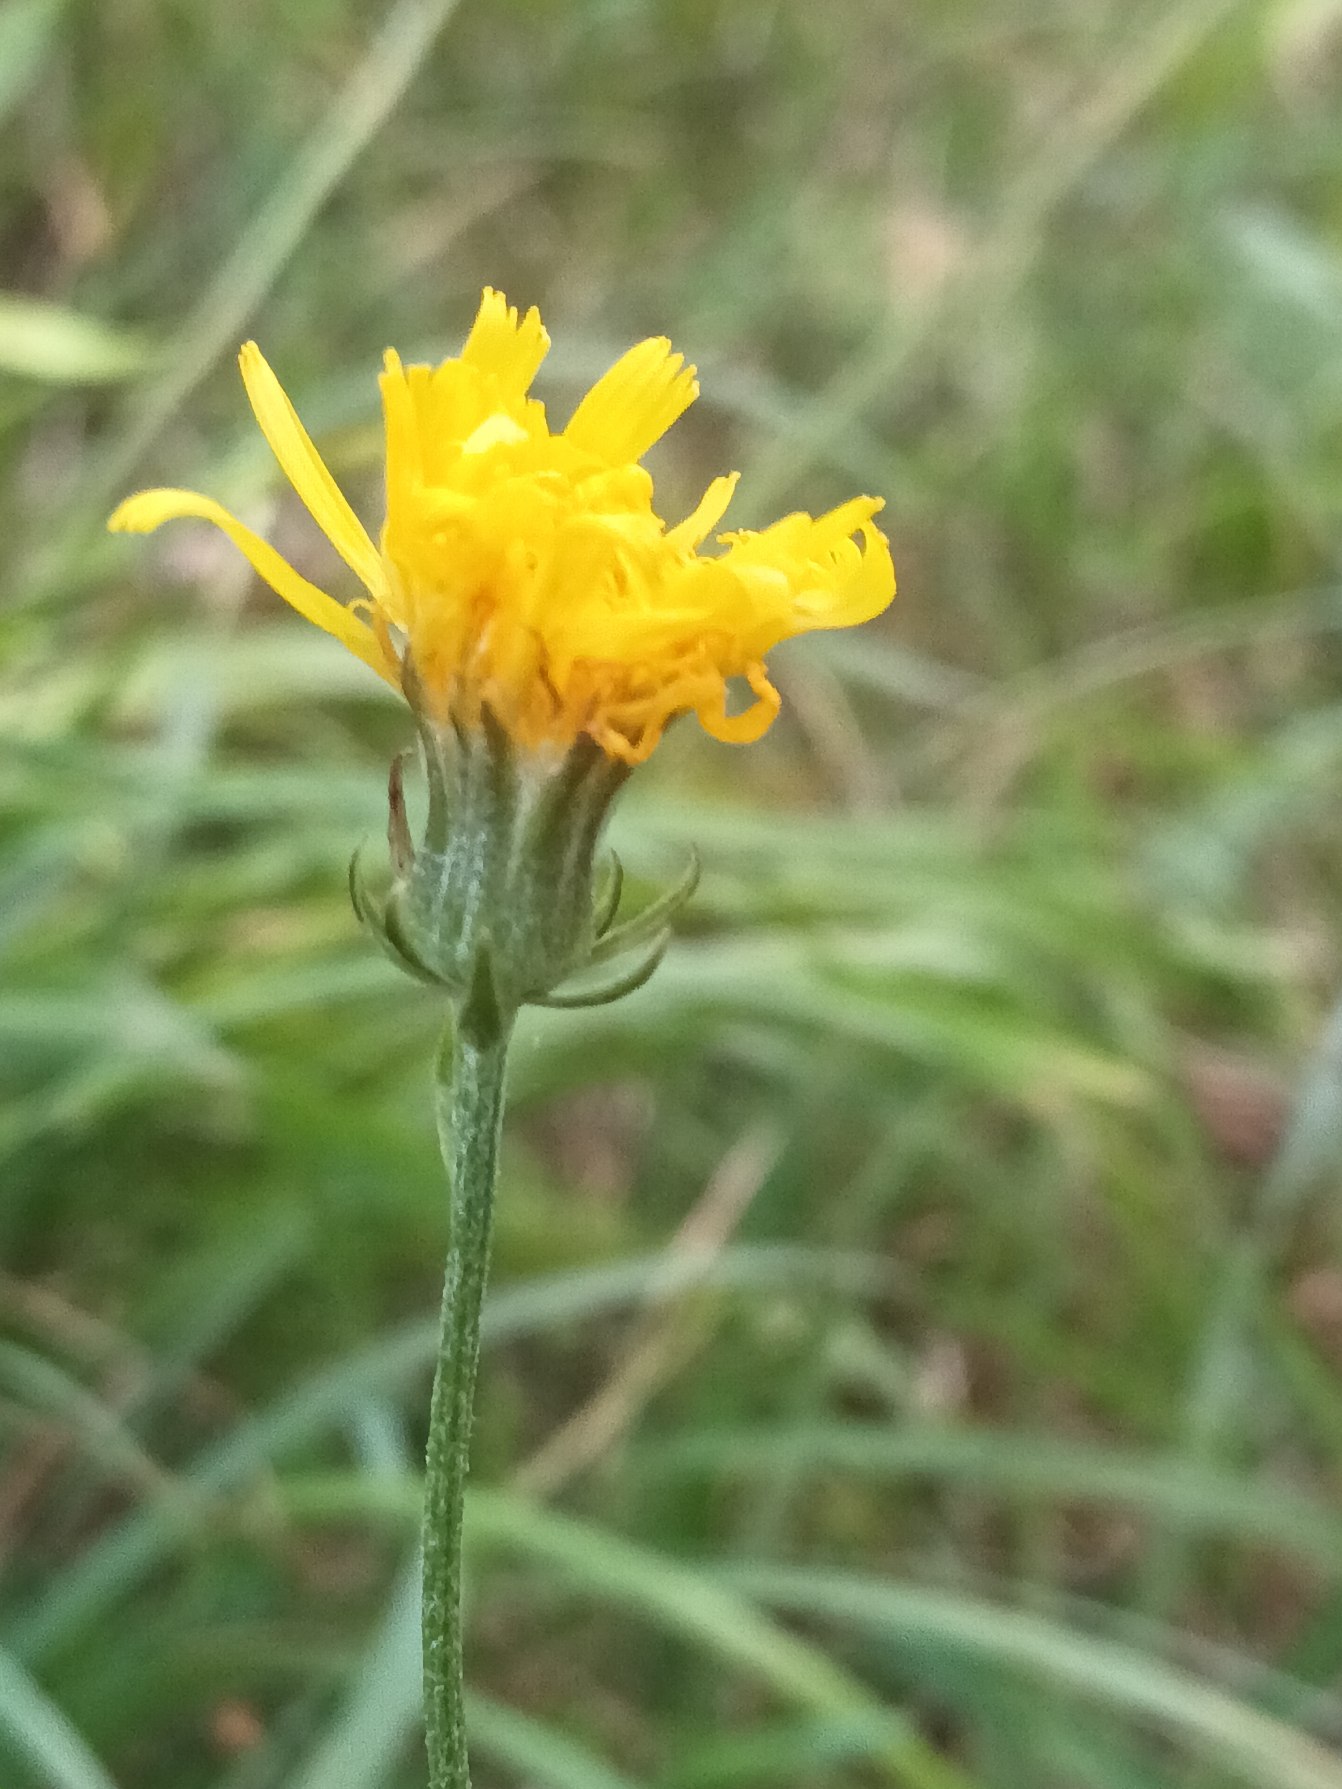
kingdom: Plantae
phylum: Tracheophyta
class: Magnoliopsida
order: Asterales
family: Asteraceae
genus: Crepis
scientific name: Crepis biennis
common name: Toårig høgeskæg
